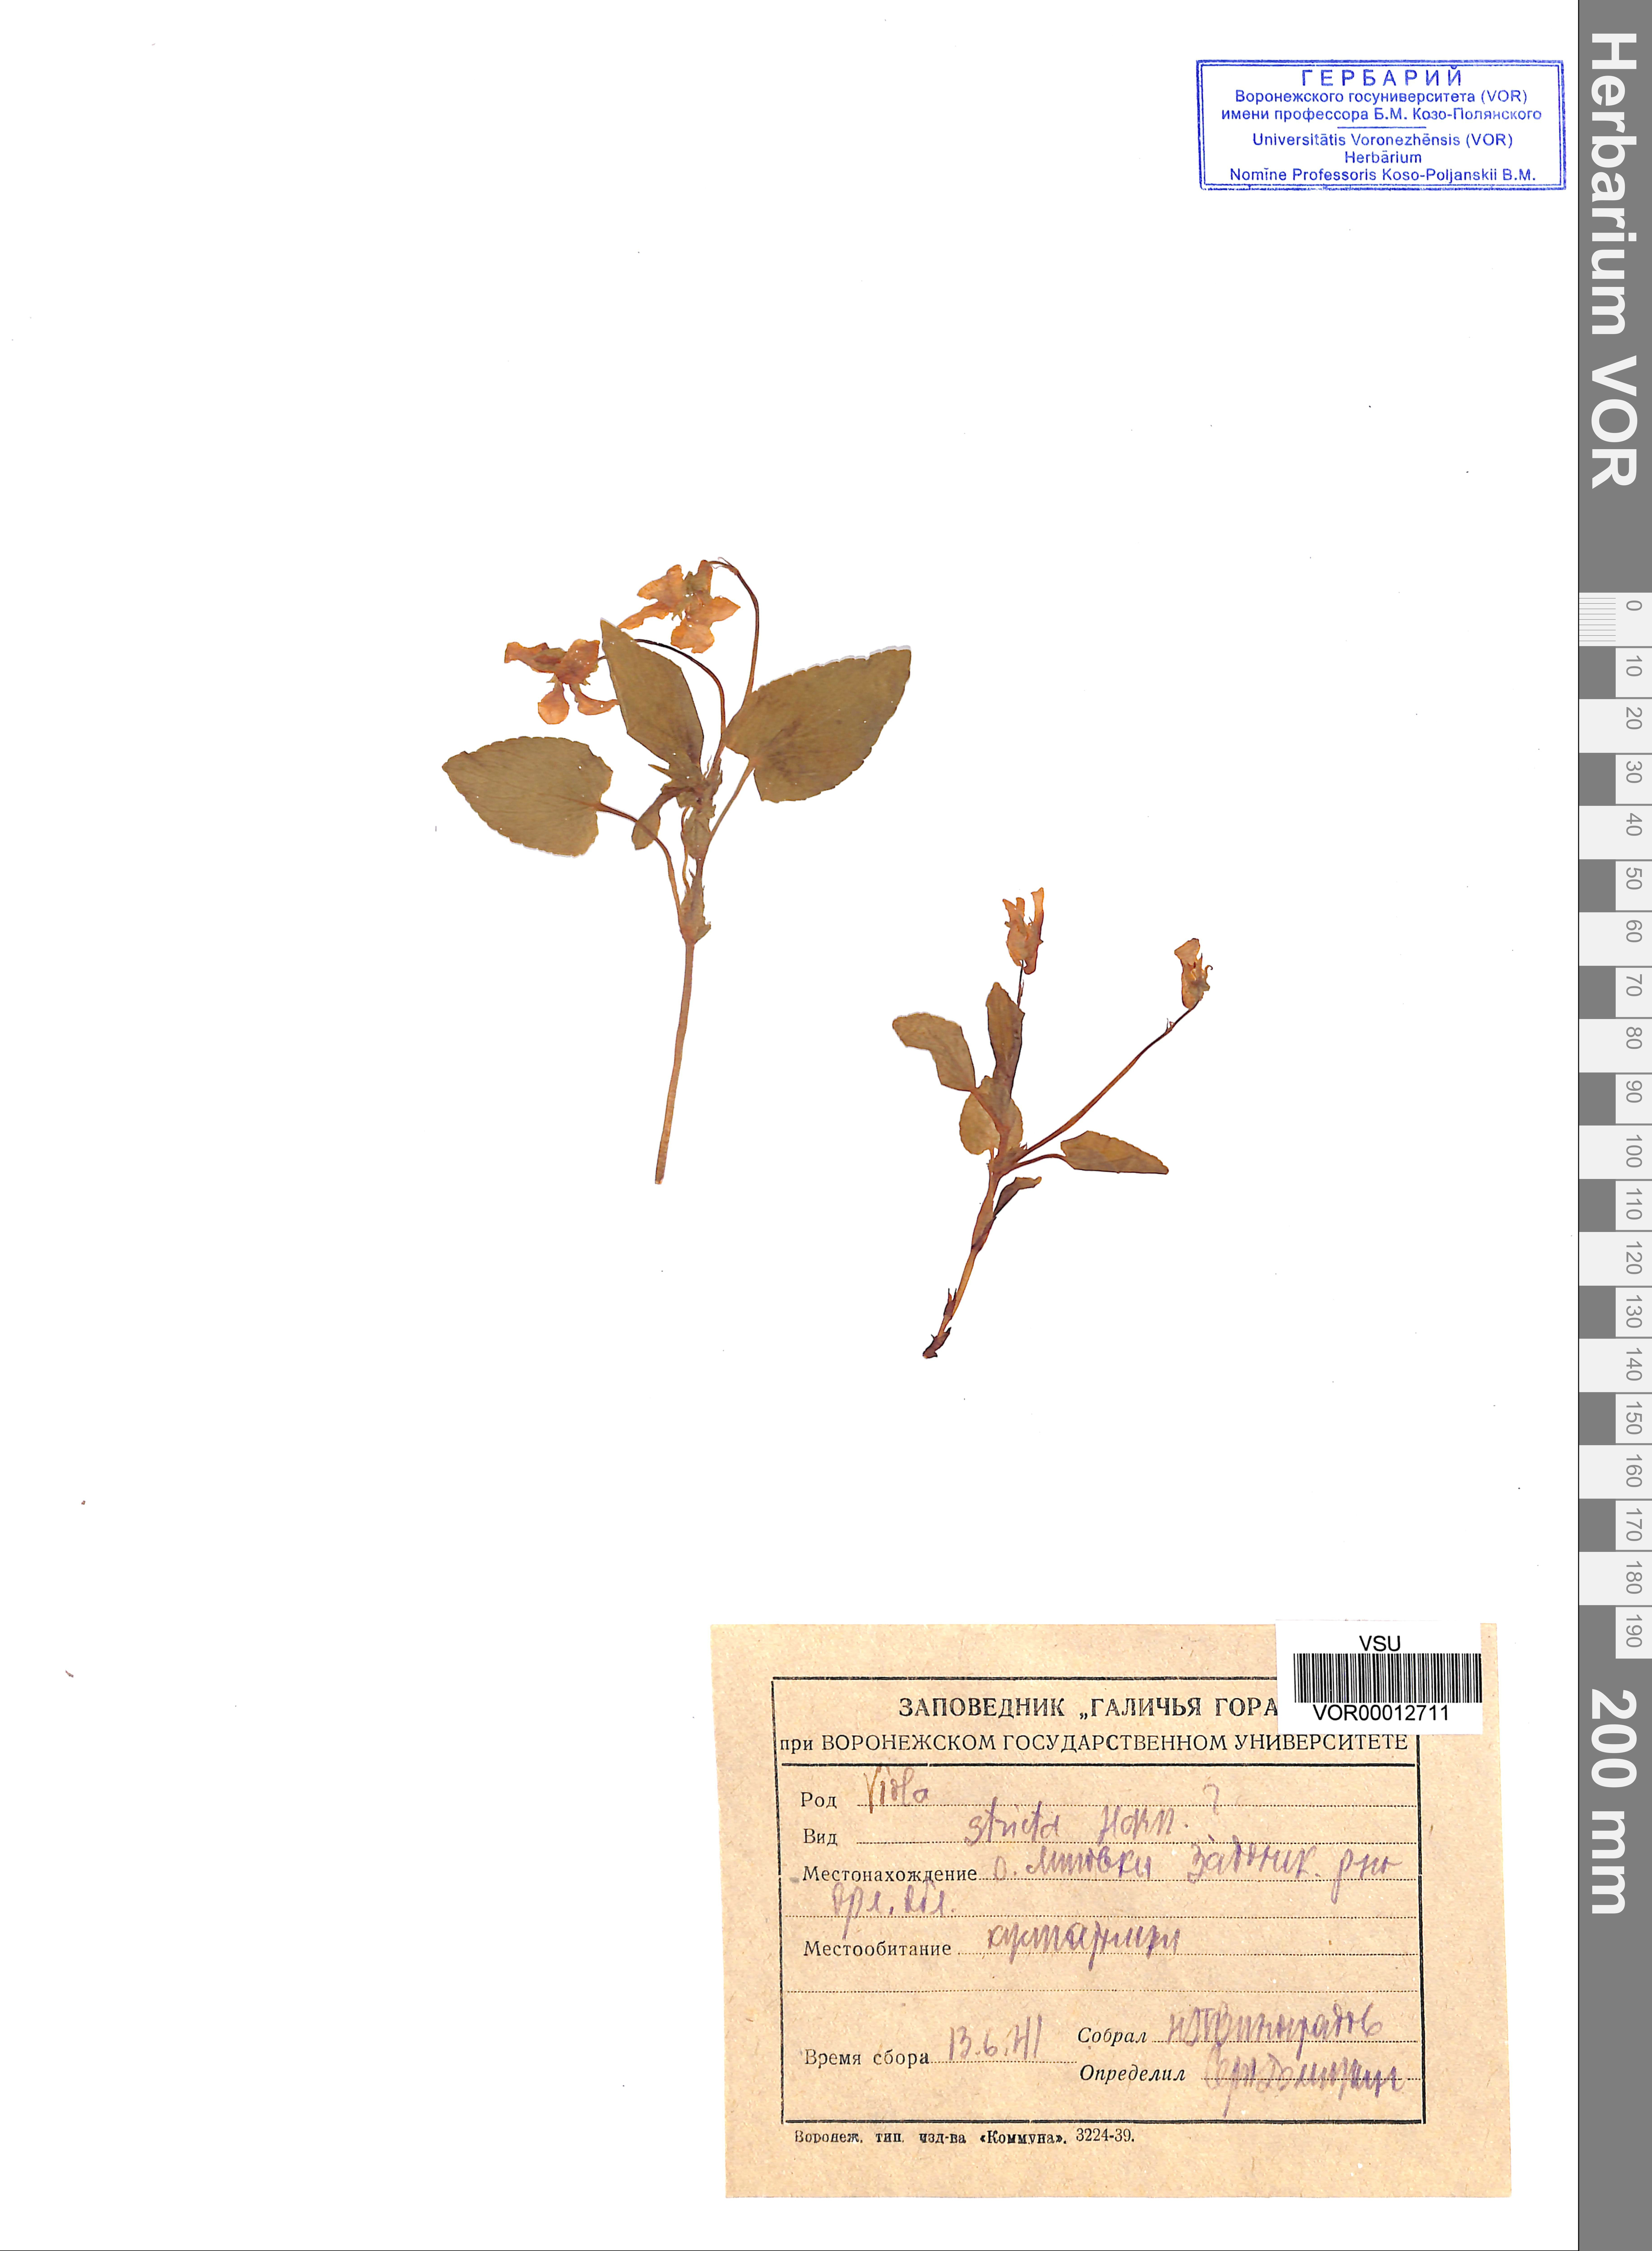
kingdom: Plantae
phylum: Tracheophyta
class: Magnoliopsida
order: Malpighiales
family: Violaceae
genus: Viola
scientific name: Viola ruppii
